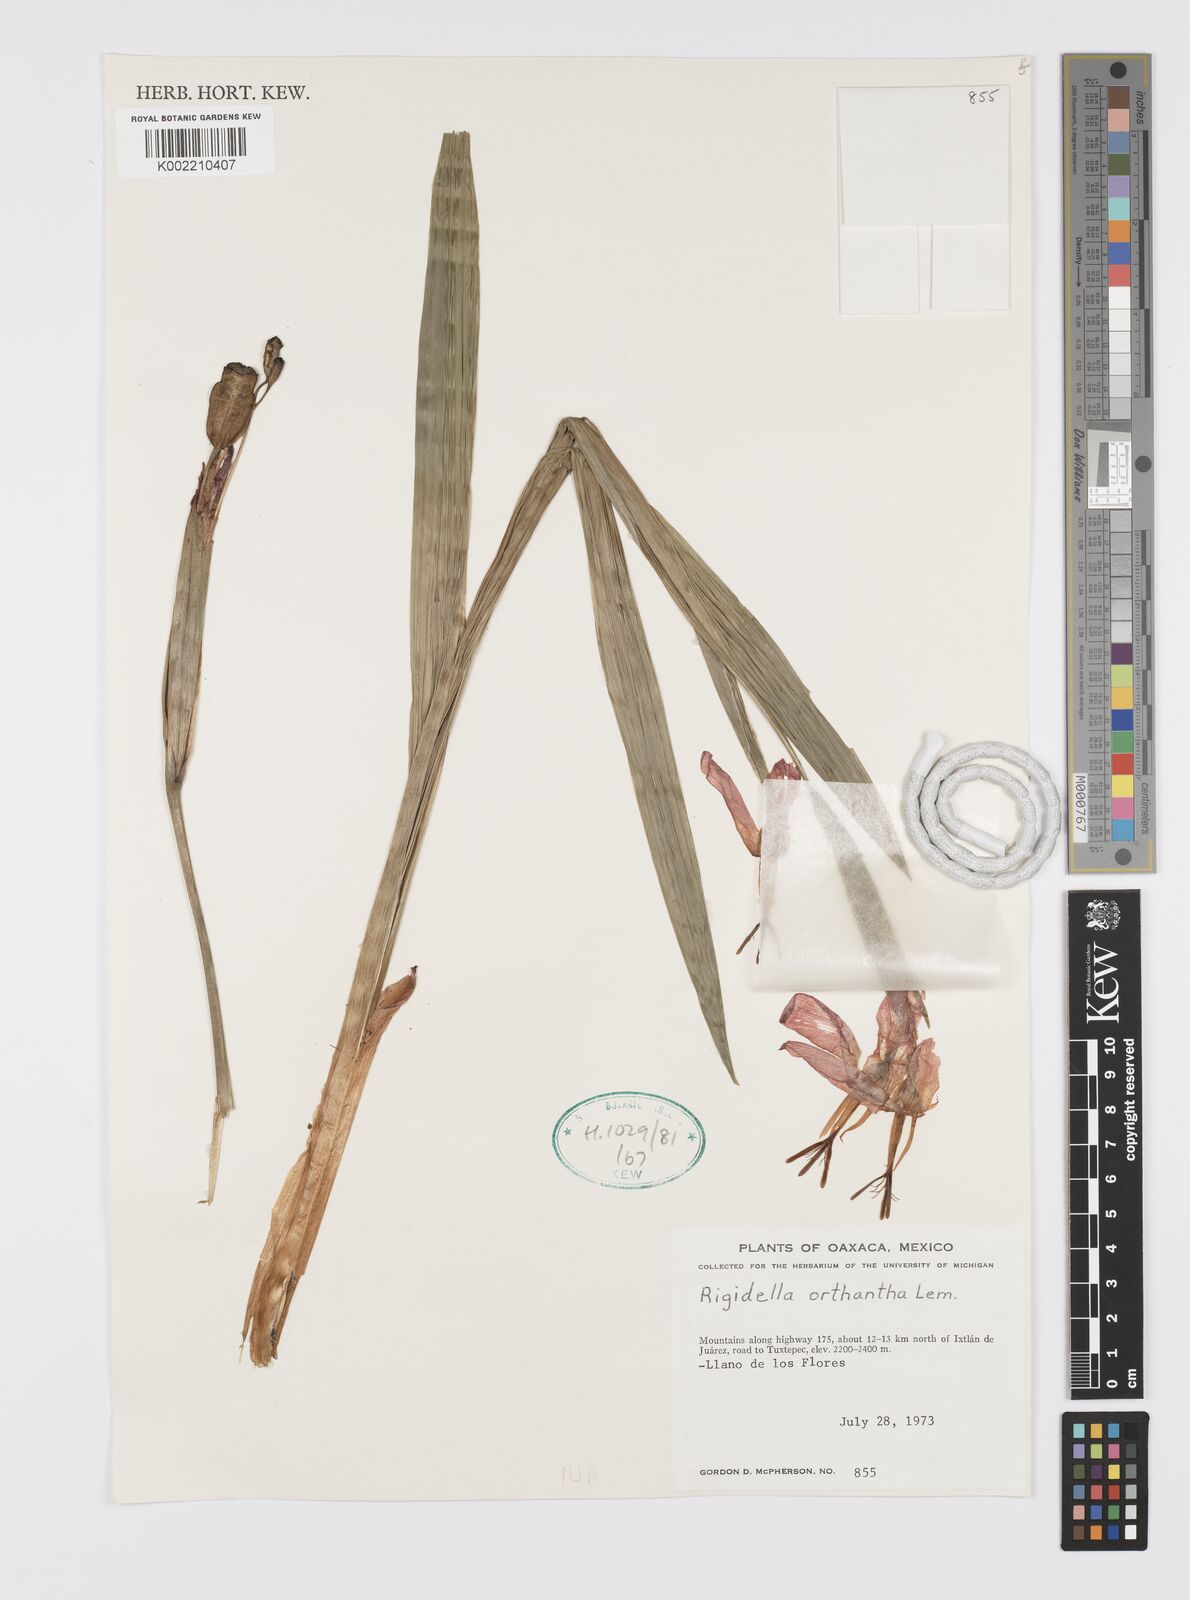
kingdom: Plantae
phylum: Tracheophyta
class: Liliopsida
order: Asparagales
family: Iridaceae
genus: Tigridia
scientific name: Tigridia orthantha
